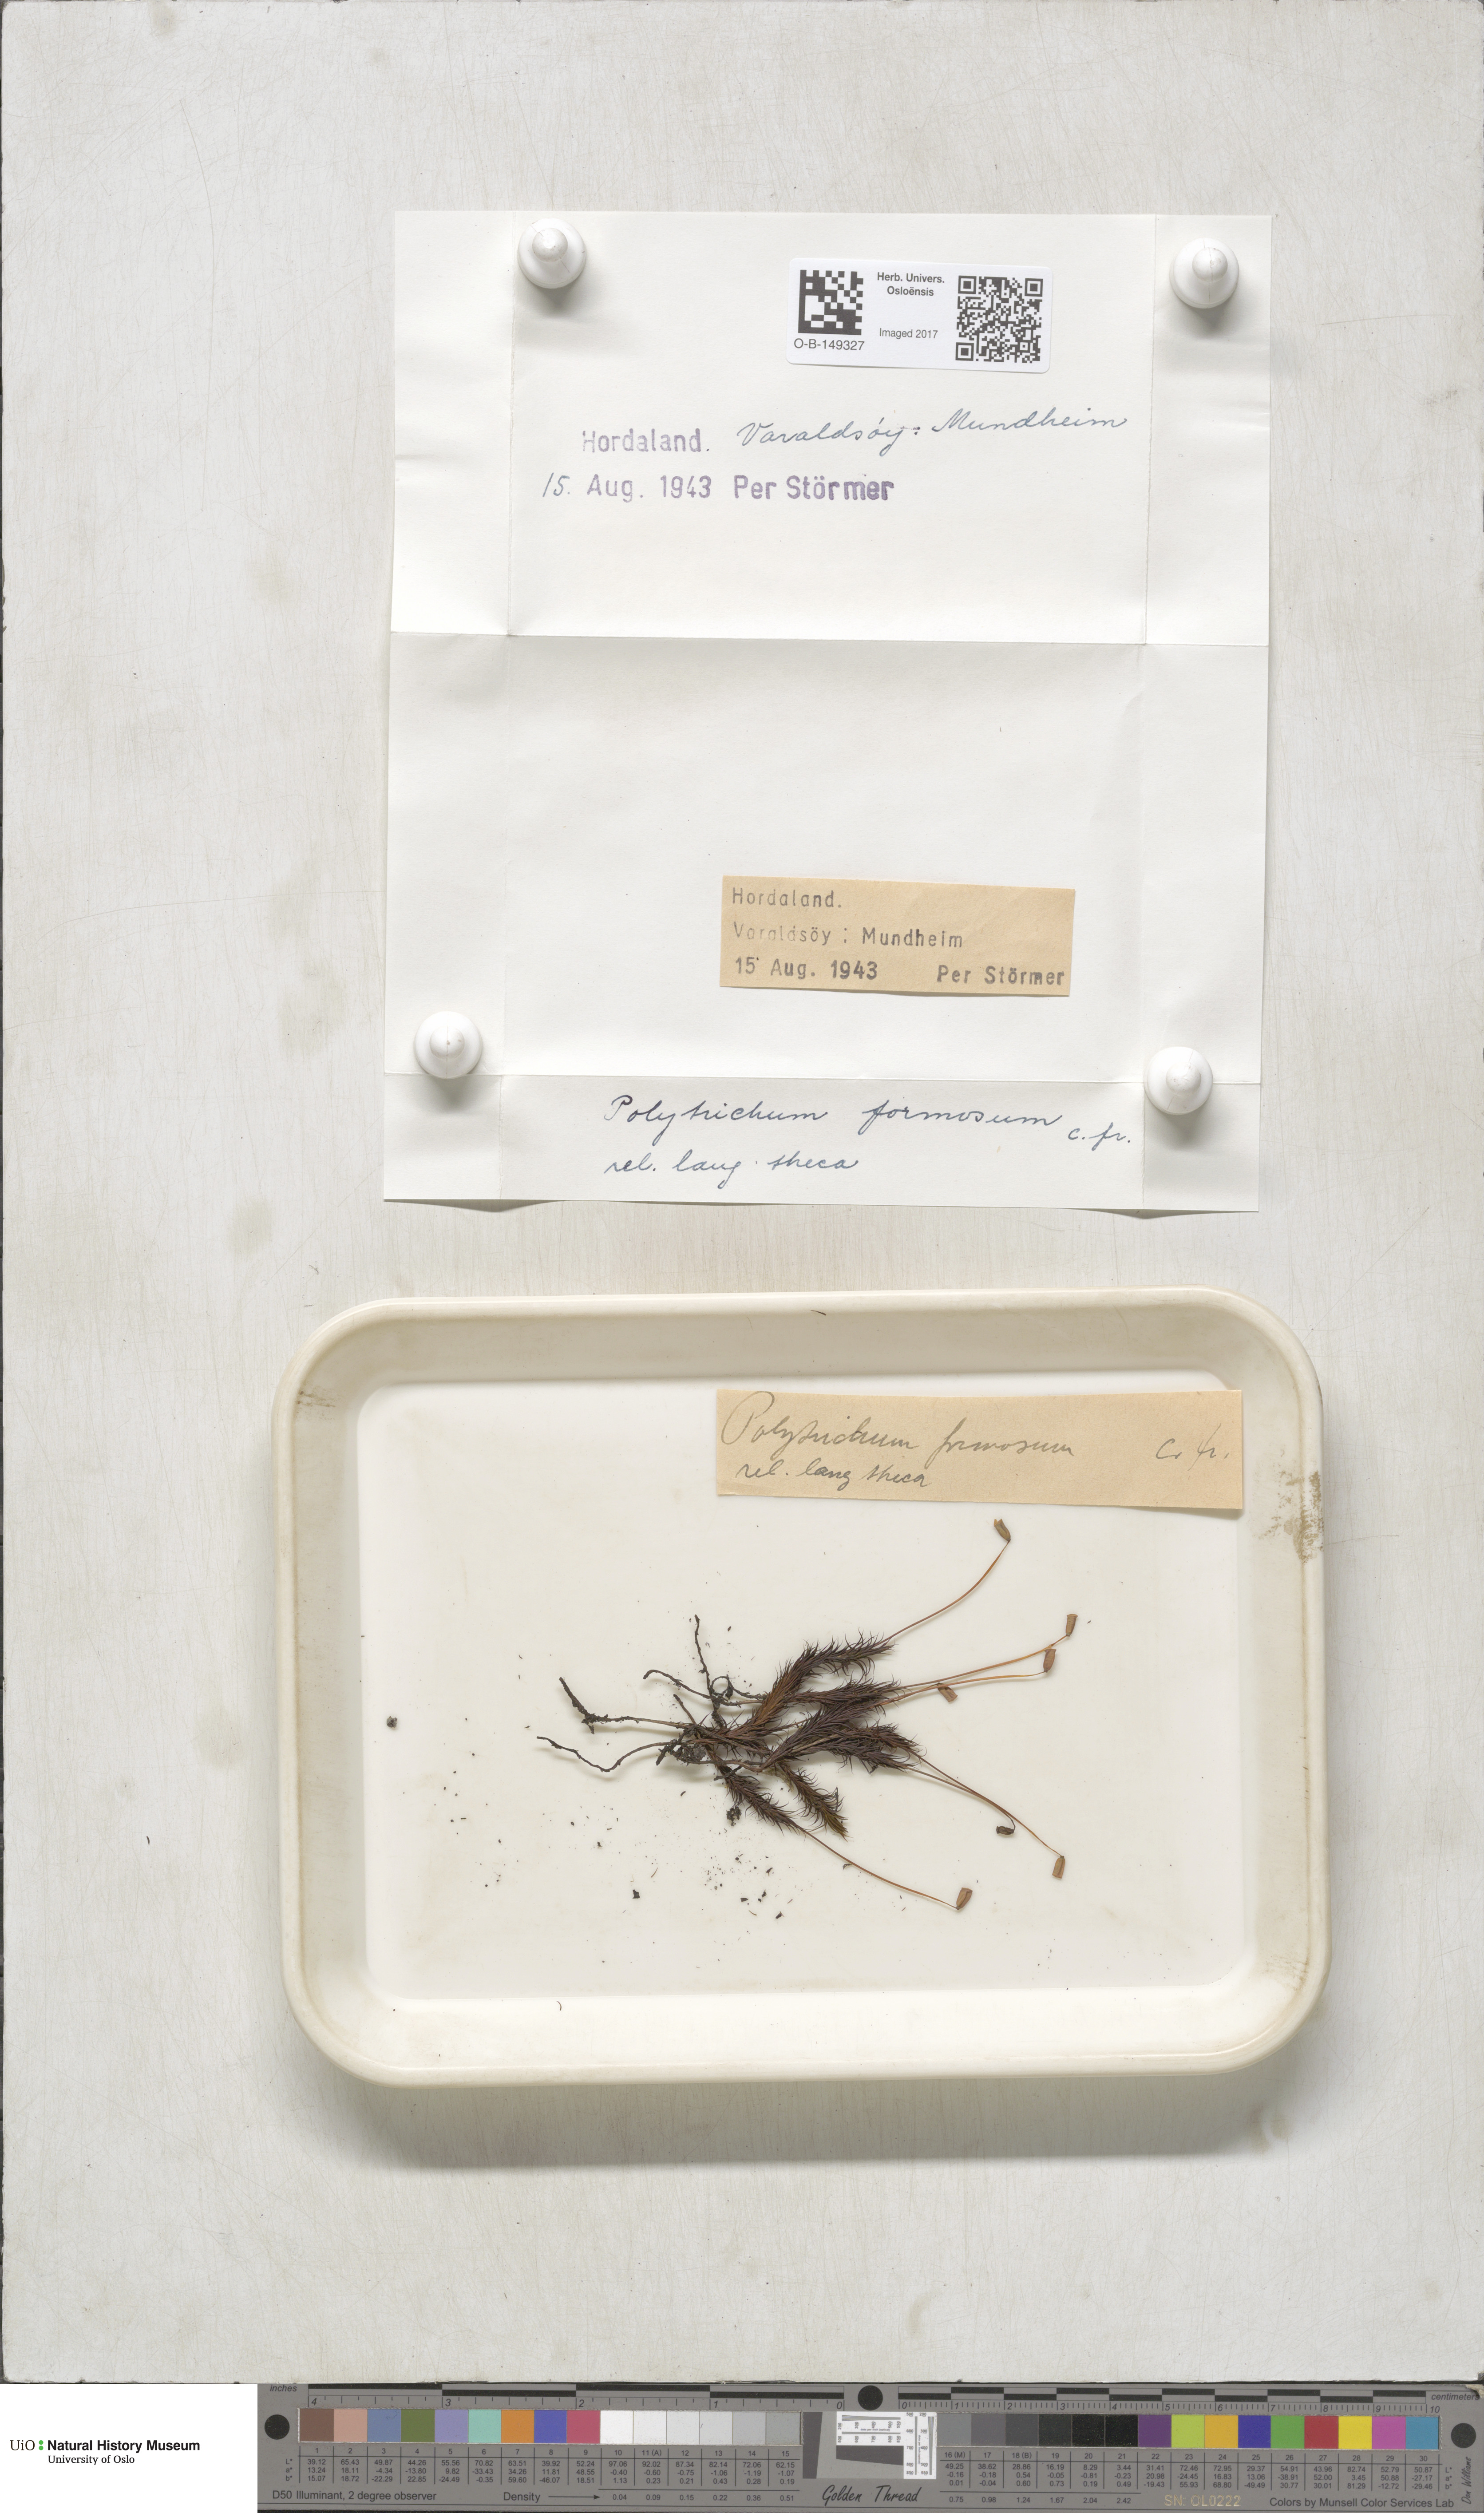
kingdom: Plantae
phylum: Bryophyta
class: Polytrichopsida
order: Polytrichales
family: Polytrichaceae
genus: Polytrichum
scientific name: Polytrichum formosum
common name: Bank haircap moss
